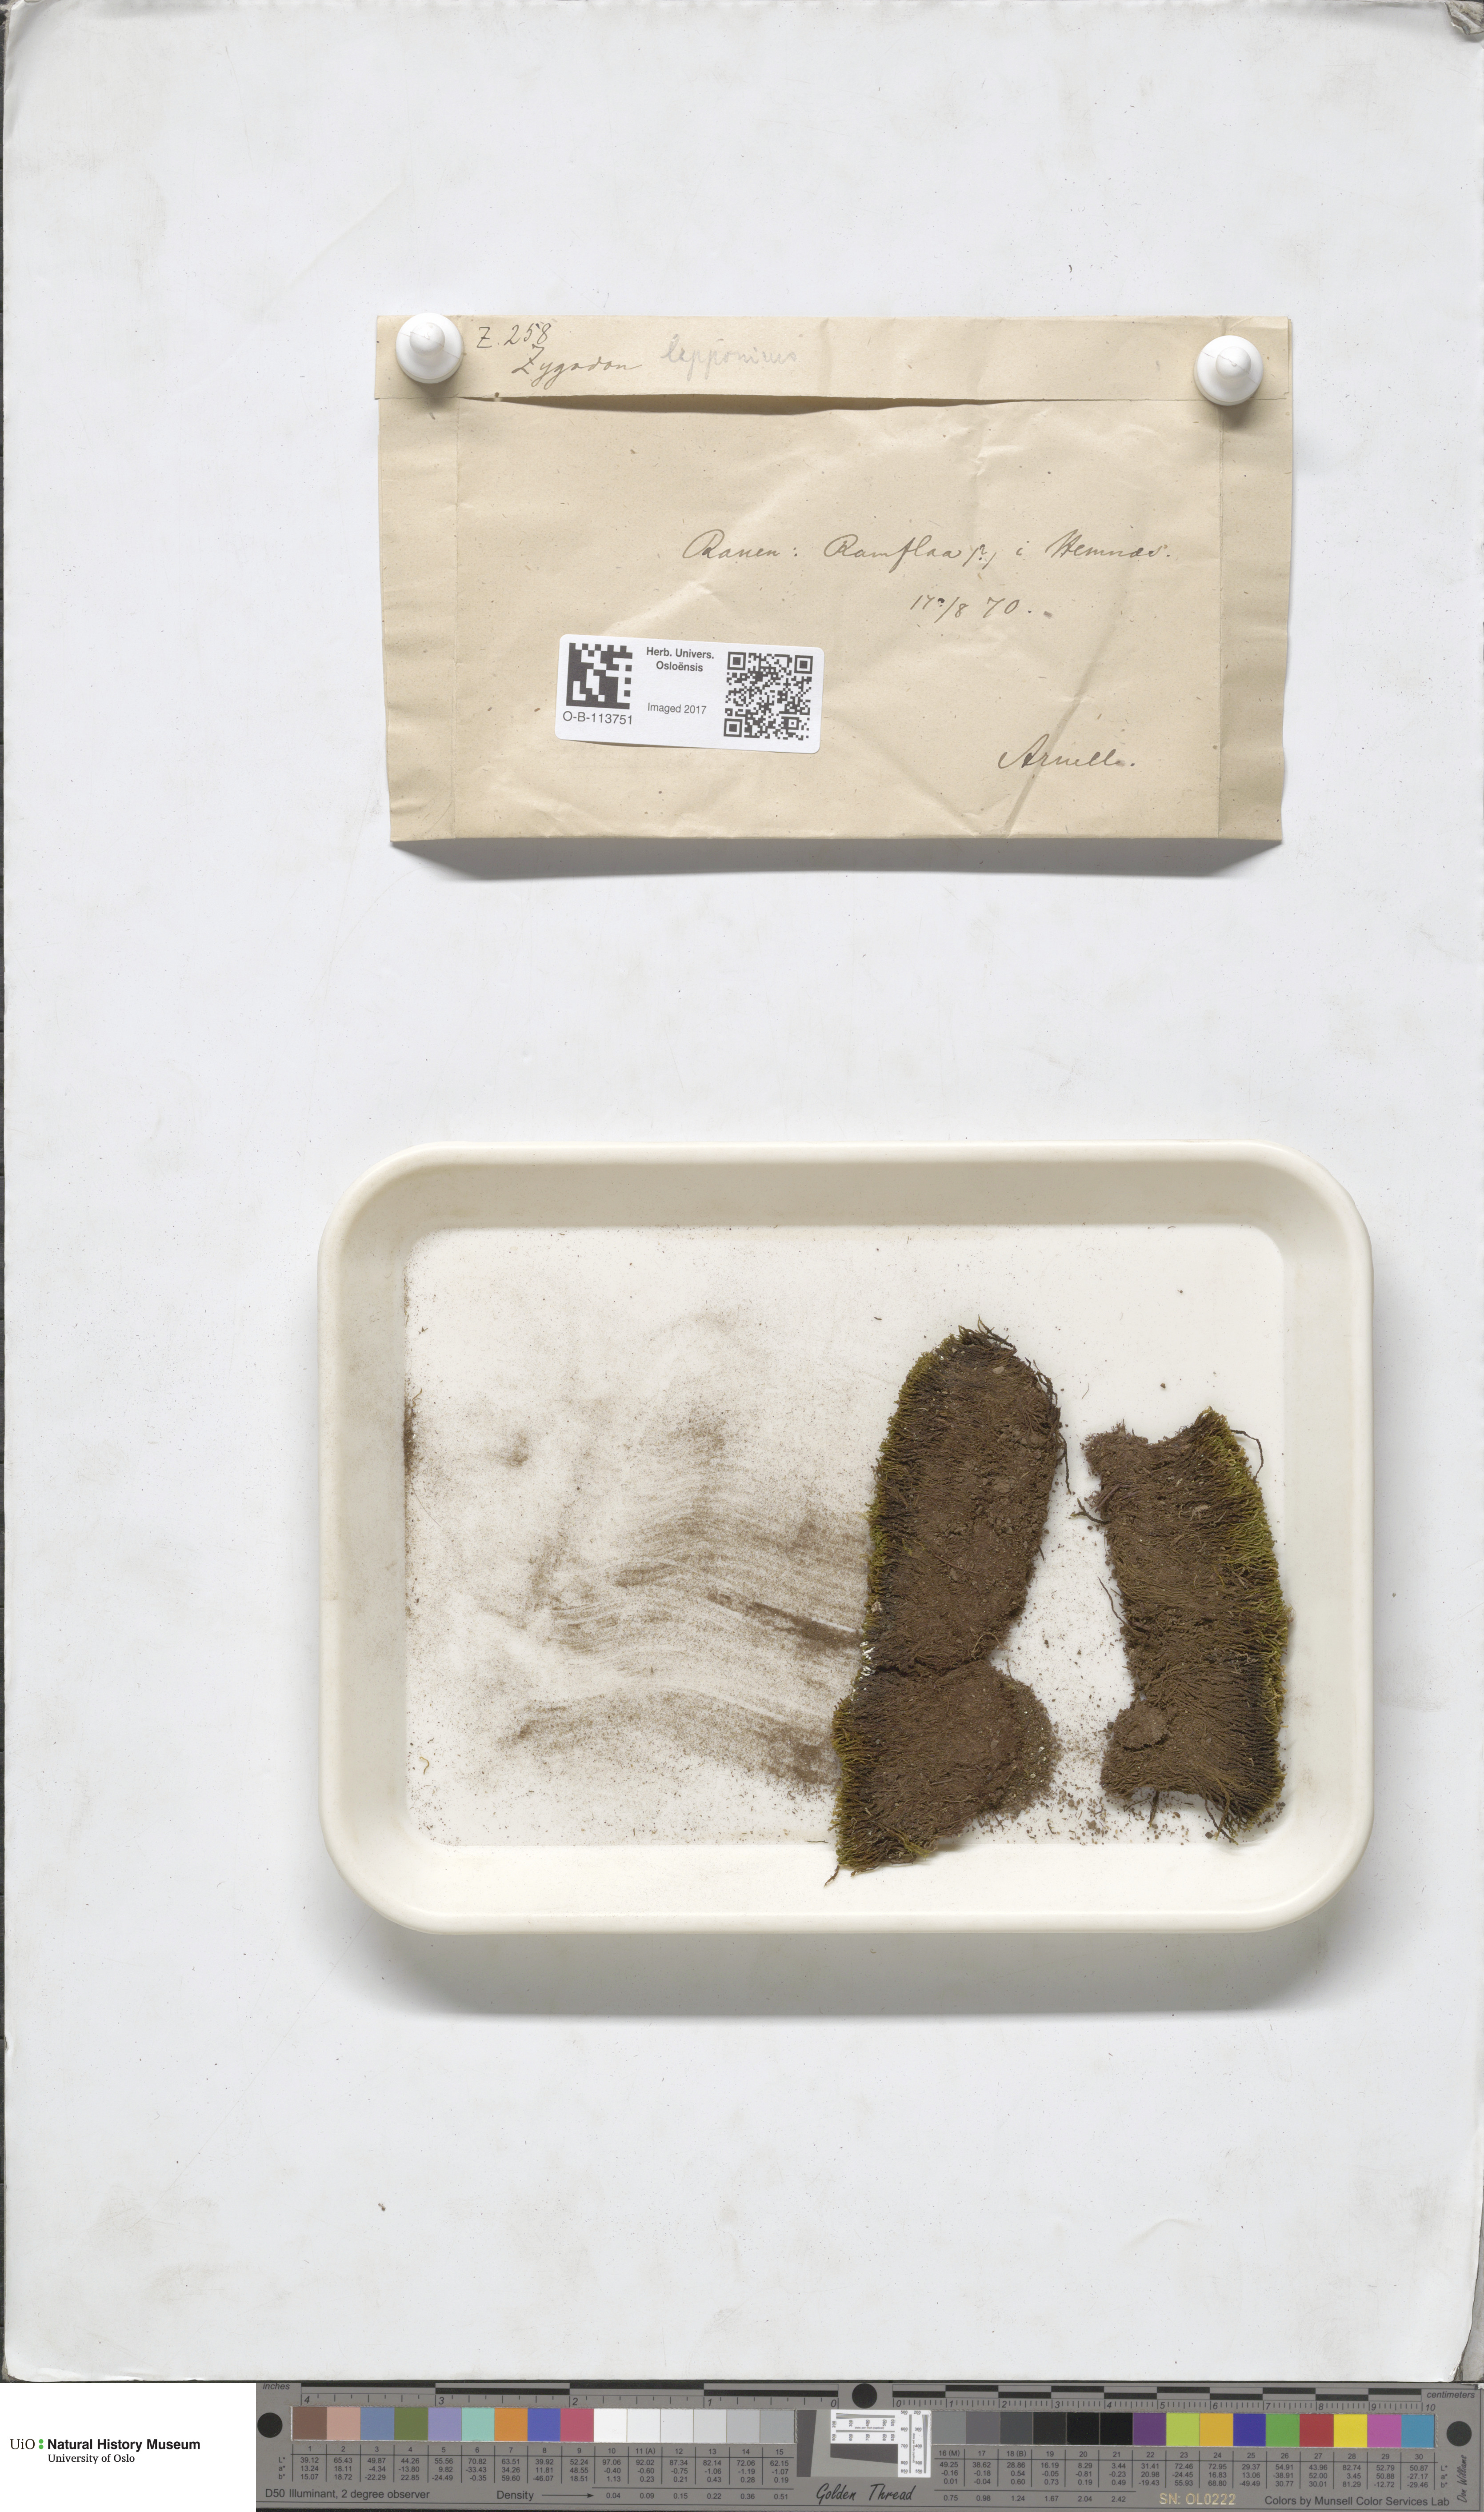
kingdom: Plantae
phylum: Bryophyta
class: Bryopsida
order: Dicranales
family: Amphidiaceae
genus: Amphidium
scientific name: Amphidium lapponicum
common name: Lapland yoke moss
